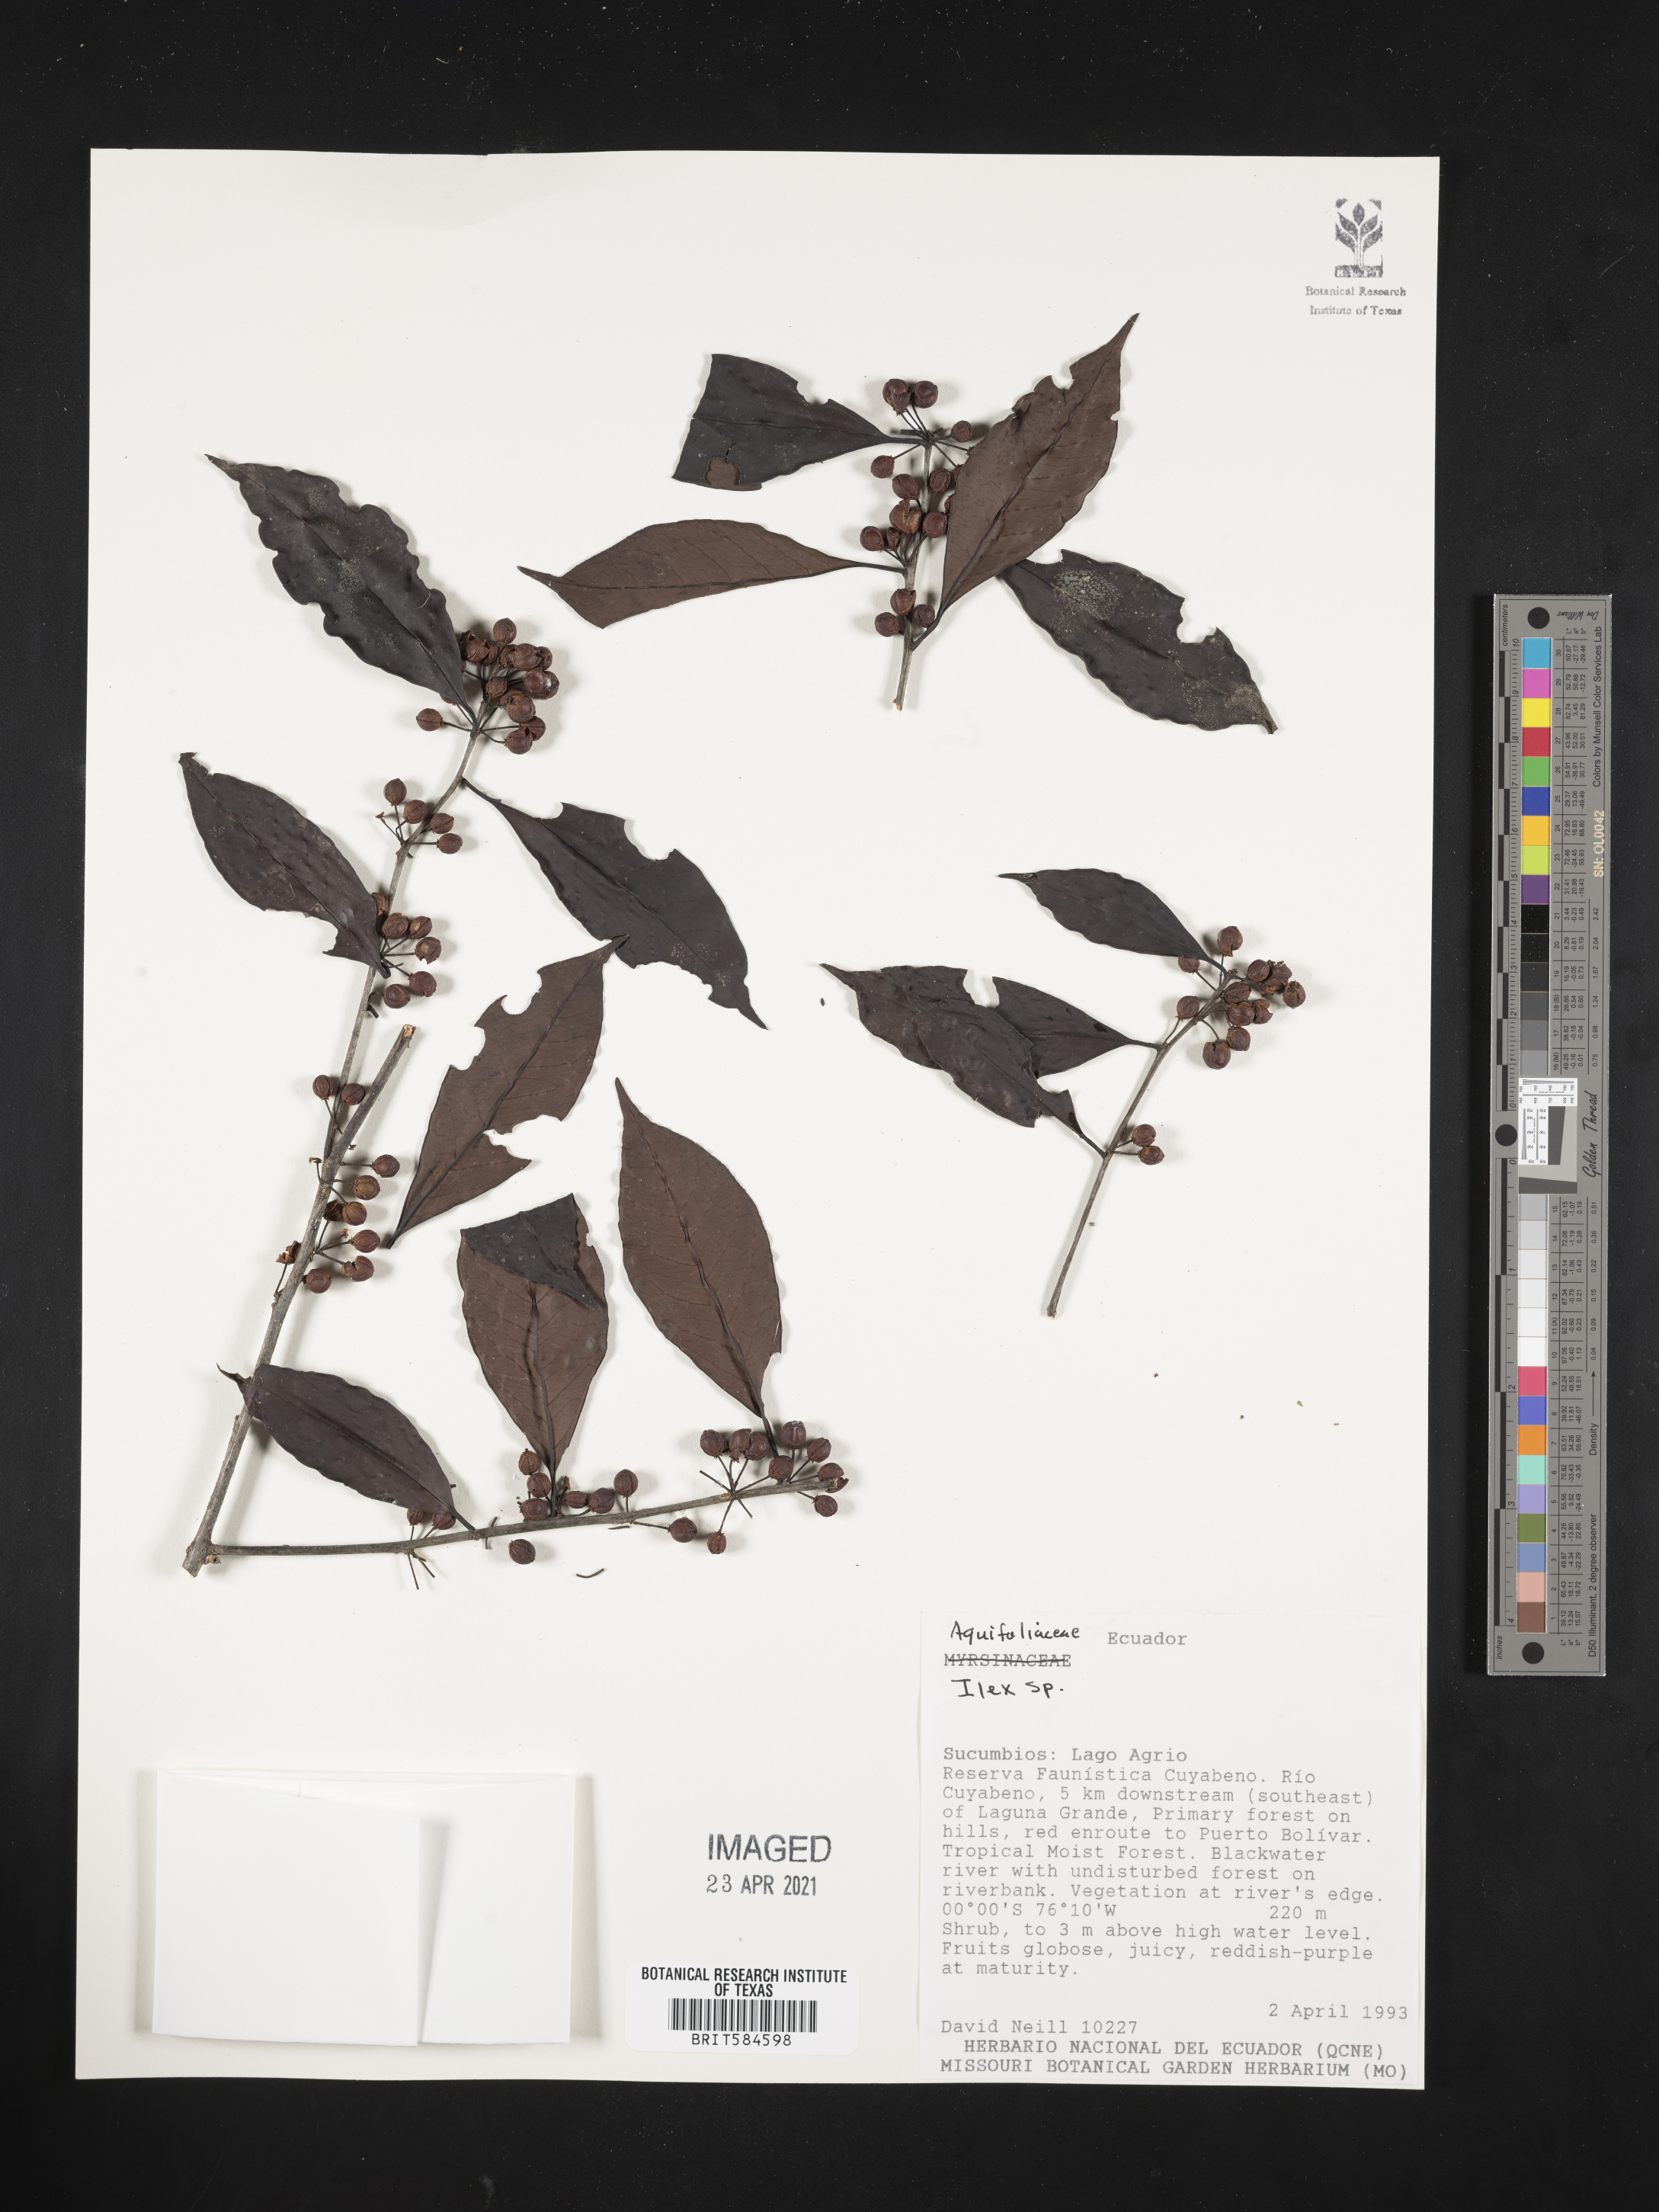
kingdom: Plantae
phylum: Tracheophyta
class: Magnoliopsida
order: Aquifoliales
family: Aquifoliaceae
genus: Ilex
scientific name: Ilex
